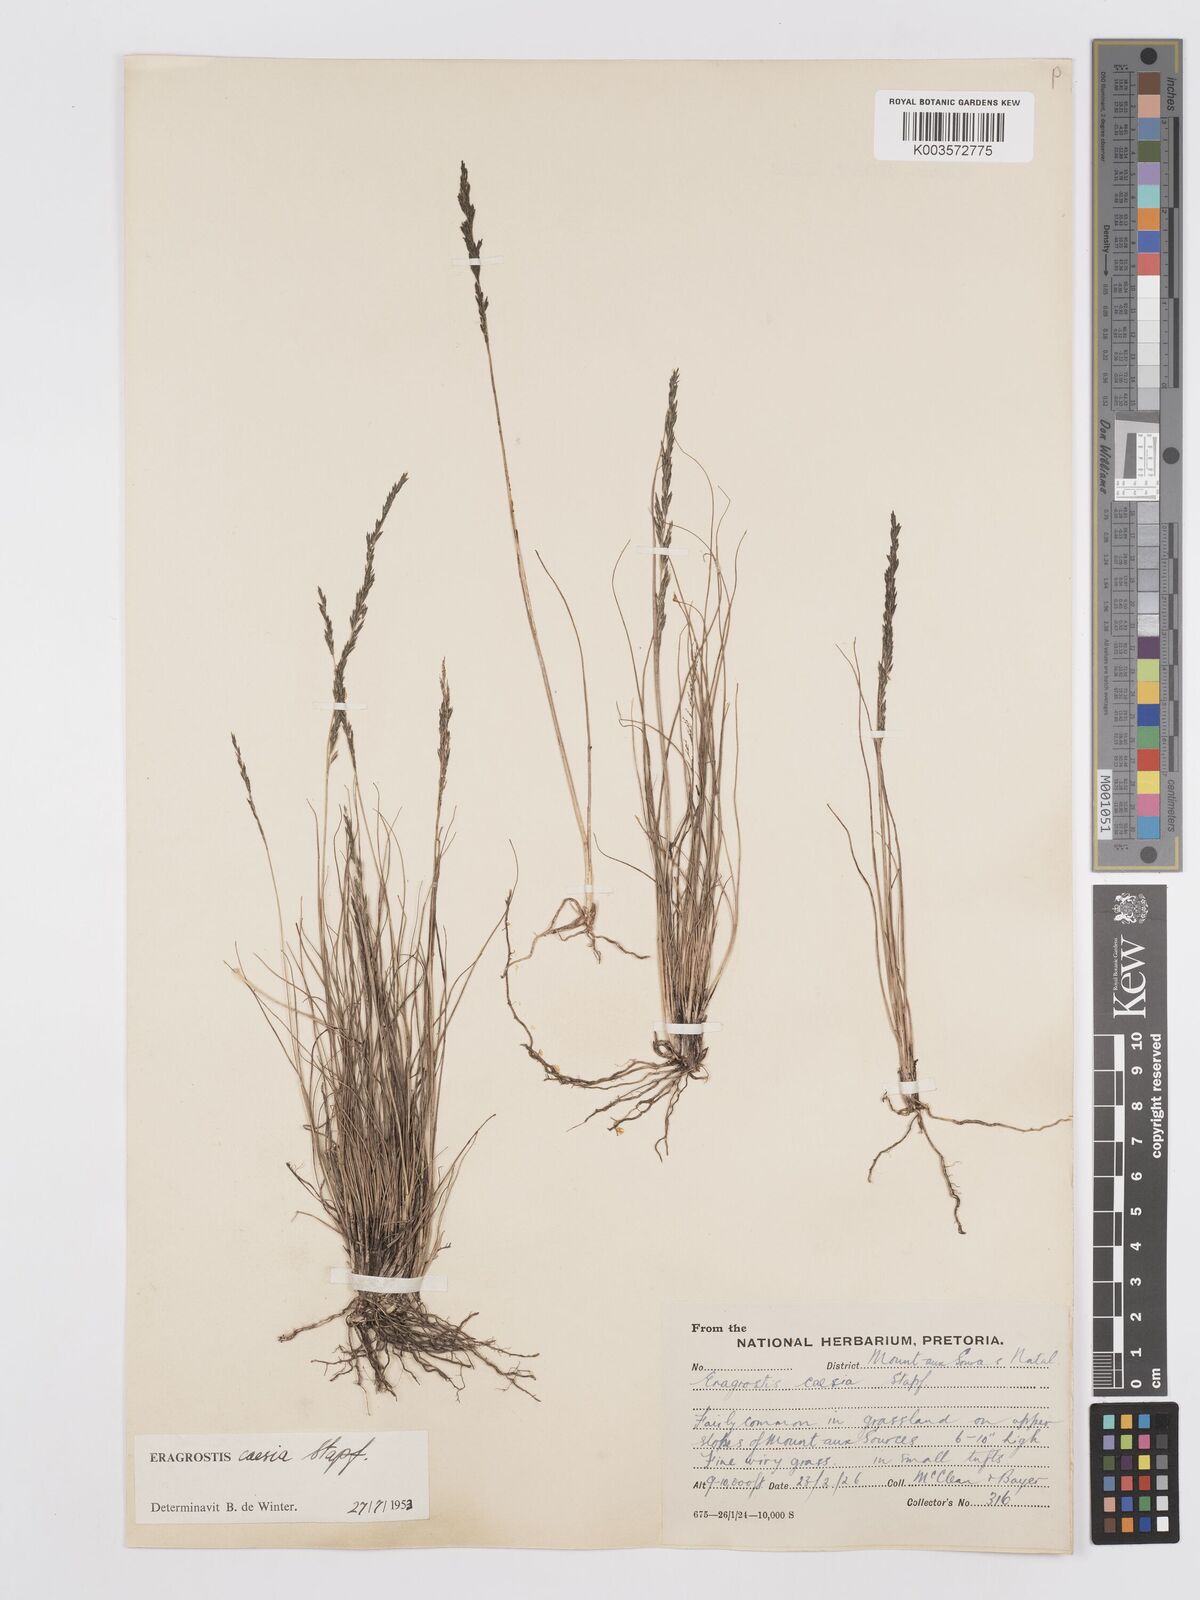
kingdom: Plantae
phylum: Tracheophyta
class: Liliopsida
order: Poales
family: Poaceae
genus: Eragrostis
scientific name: Eragrostis caesia
